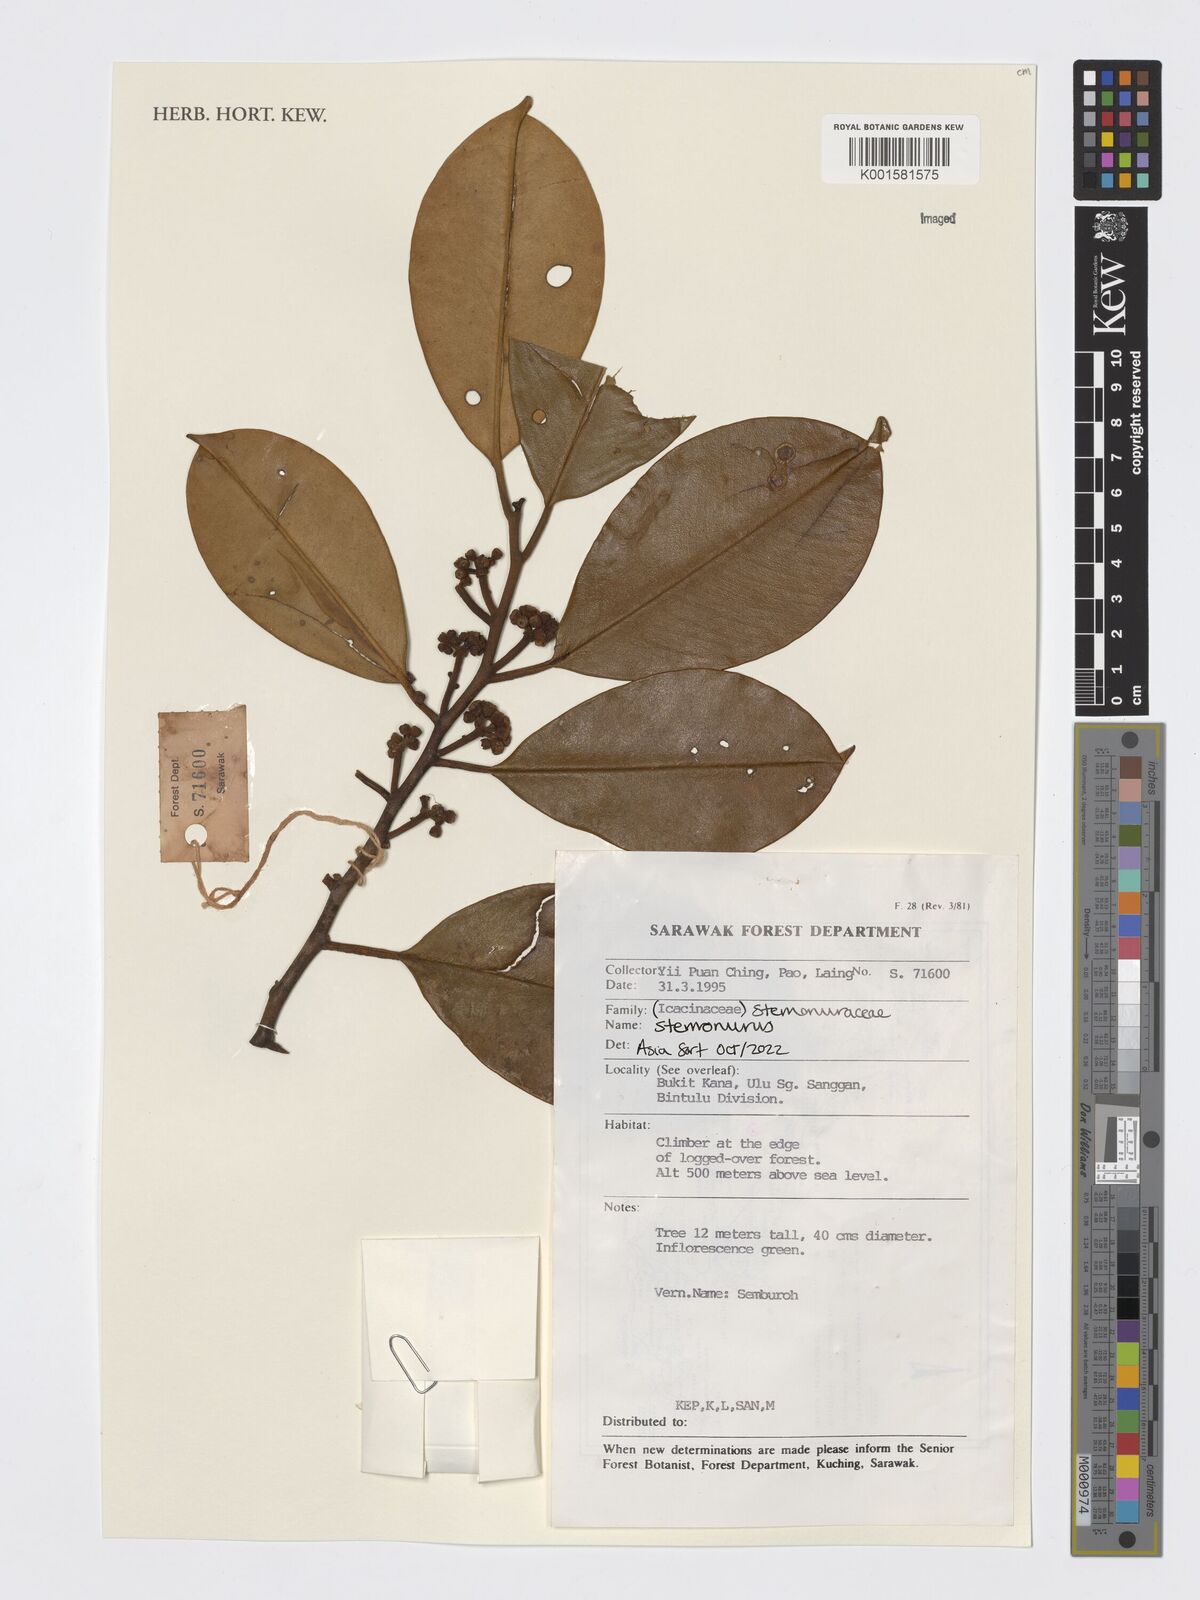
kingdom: Plantae
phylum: Tracheophyta
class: Magnoliopsida
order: Cardiopteridales
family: Stemonuraceae
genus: Stemonurus
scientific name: Stemonurus
